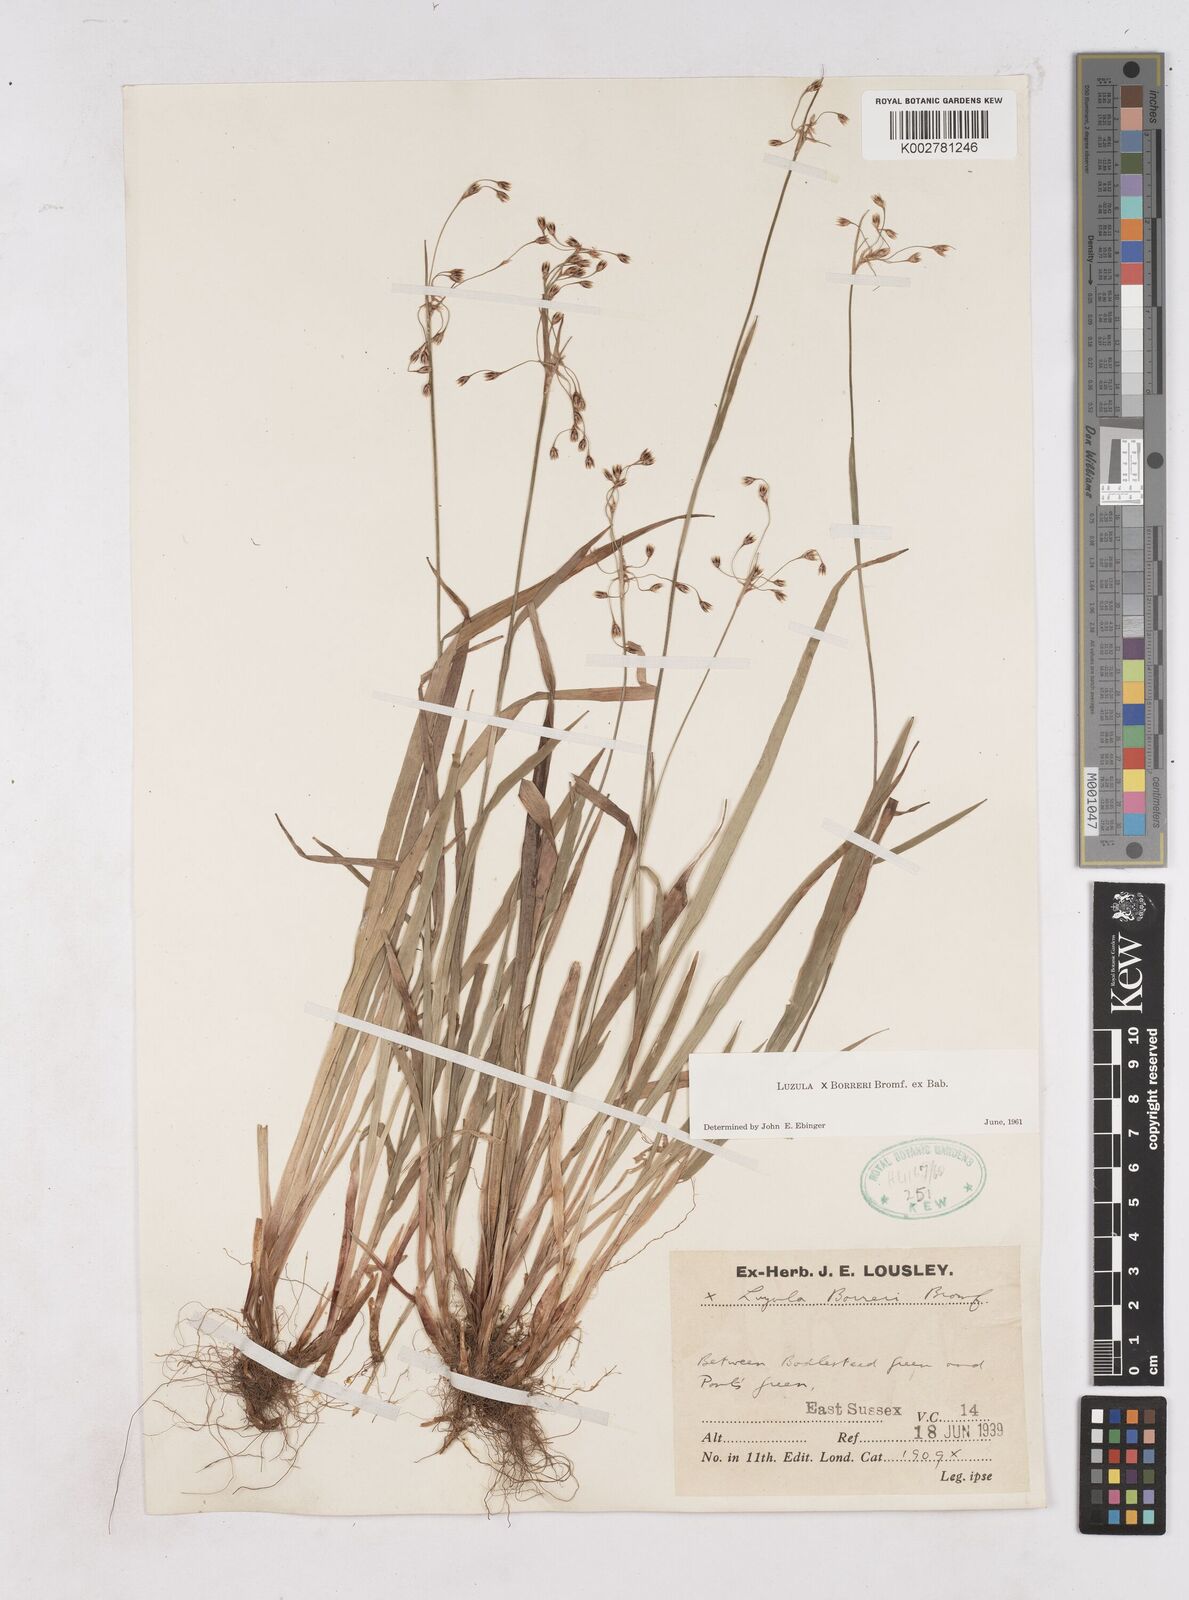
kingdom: Plantae
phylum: Tracheophyta
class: Liliopsida
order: Poales
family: Juncaceae
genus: Luzula
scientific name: Luzula forsteri
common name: Southern wood-rush
